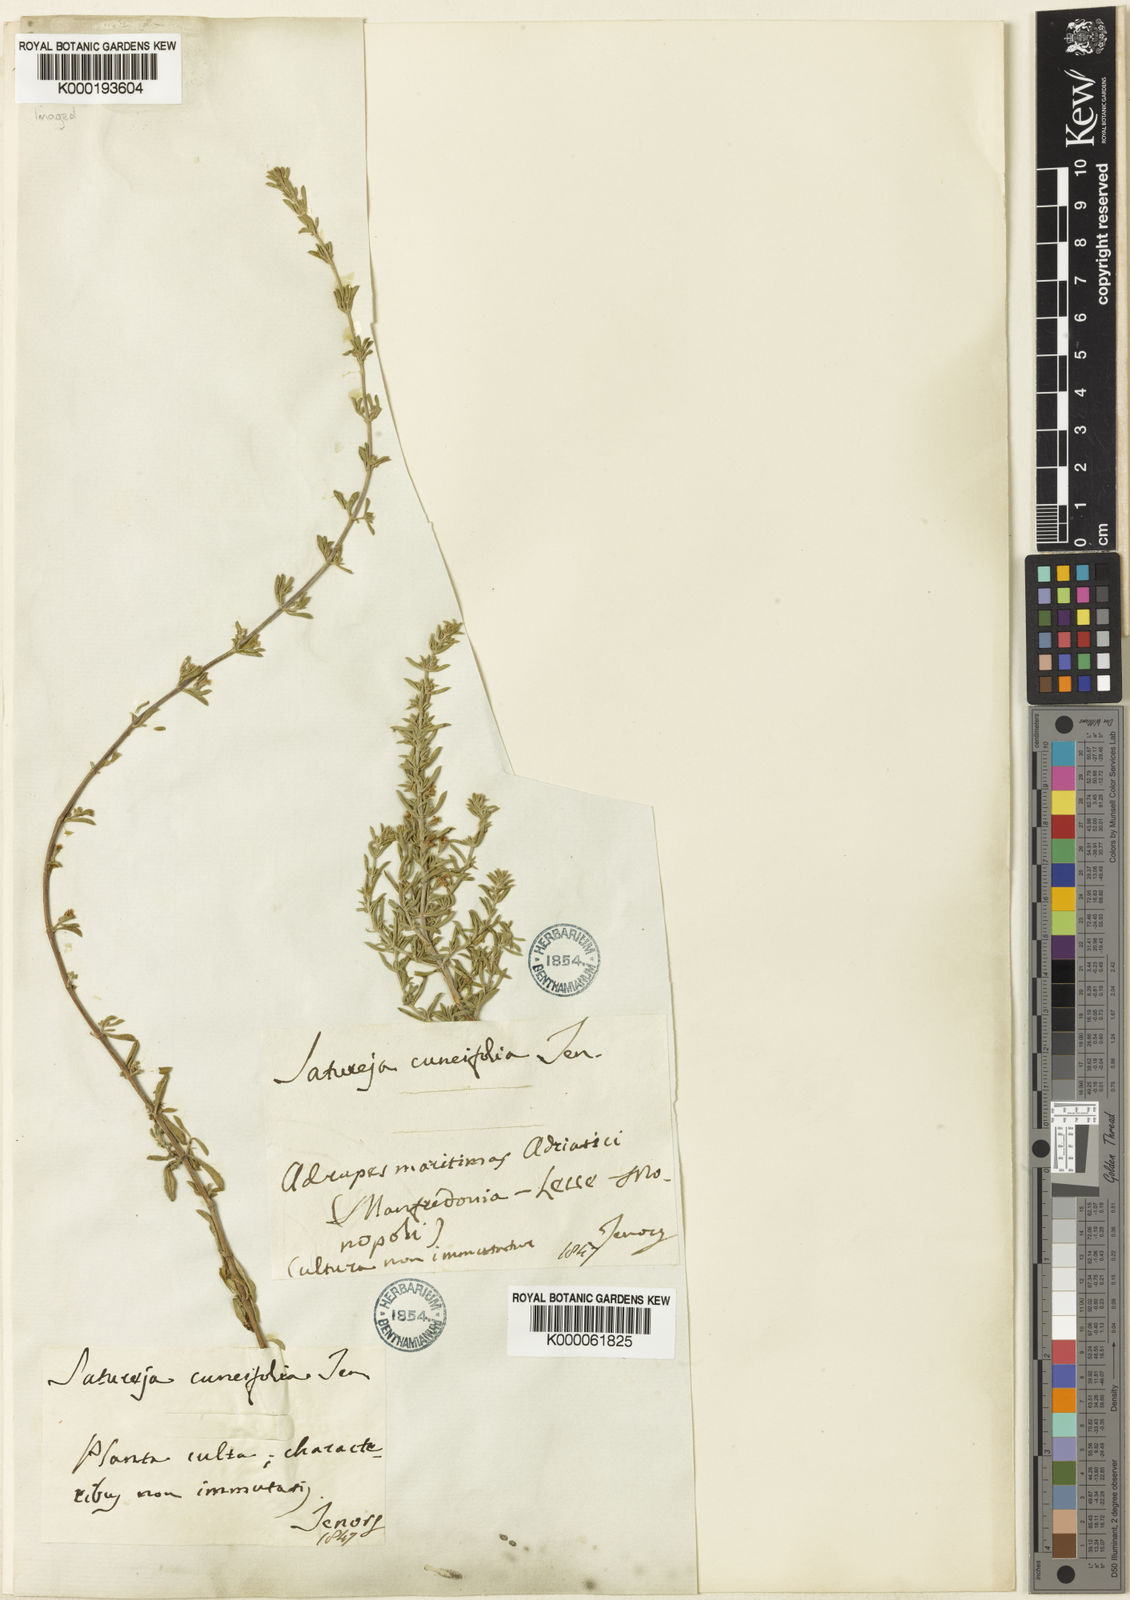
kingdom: Plantae
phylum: Tracheophyta
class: Magnoliopsida
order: Lamiales
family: Lamiaceae
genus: Satureja
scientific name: Satureja cuneifolia
